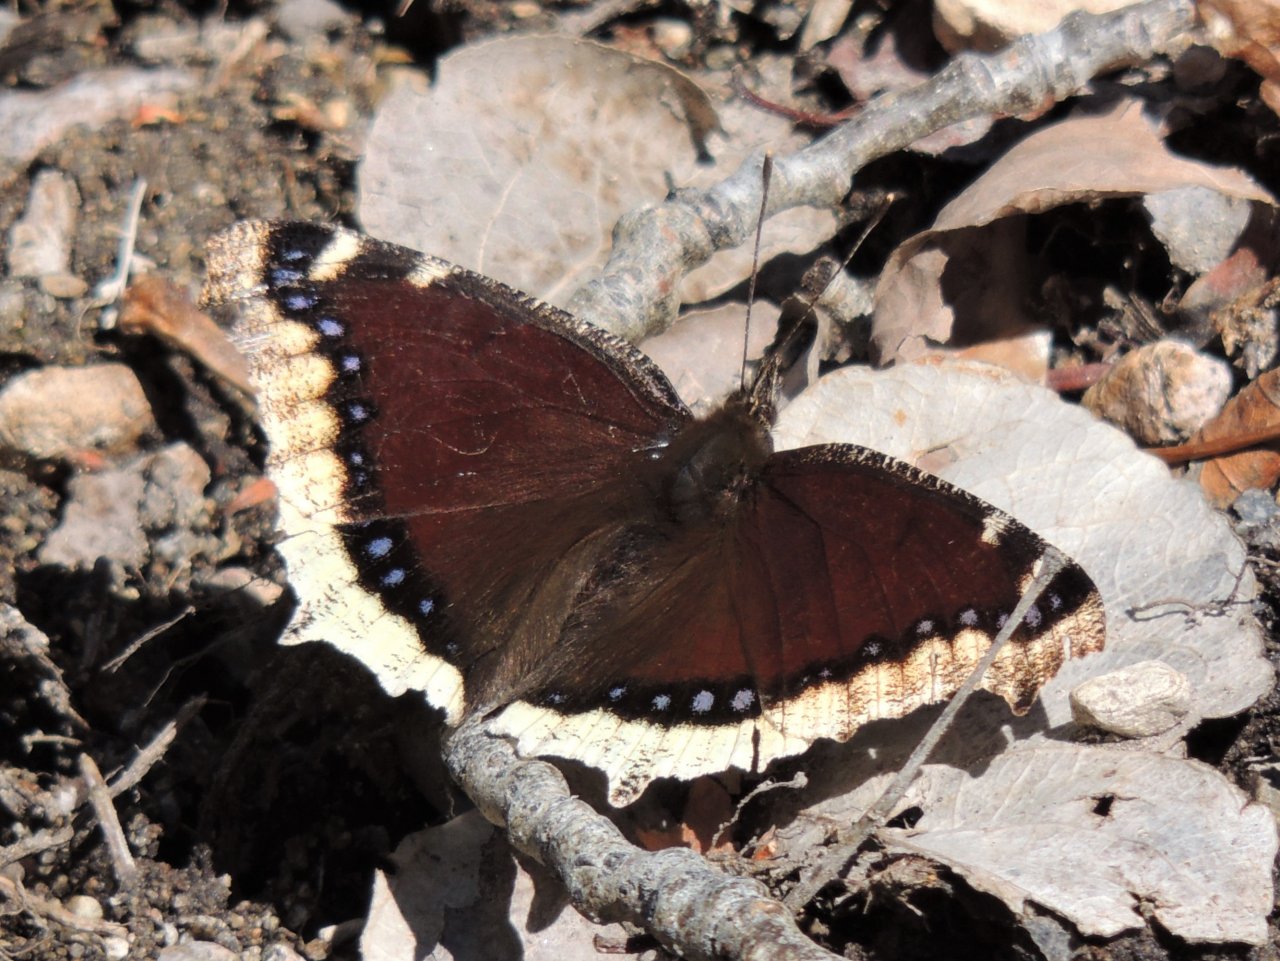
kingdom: Animalia
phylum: Arthropoda
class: Insecta
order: Lepidoptera
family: Nymphalidae
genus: Nymphalis
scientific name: Nymphalis antiopa
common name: Mourning Cloak
